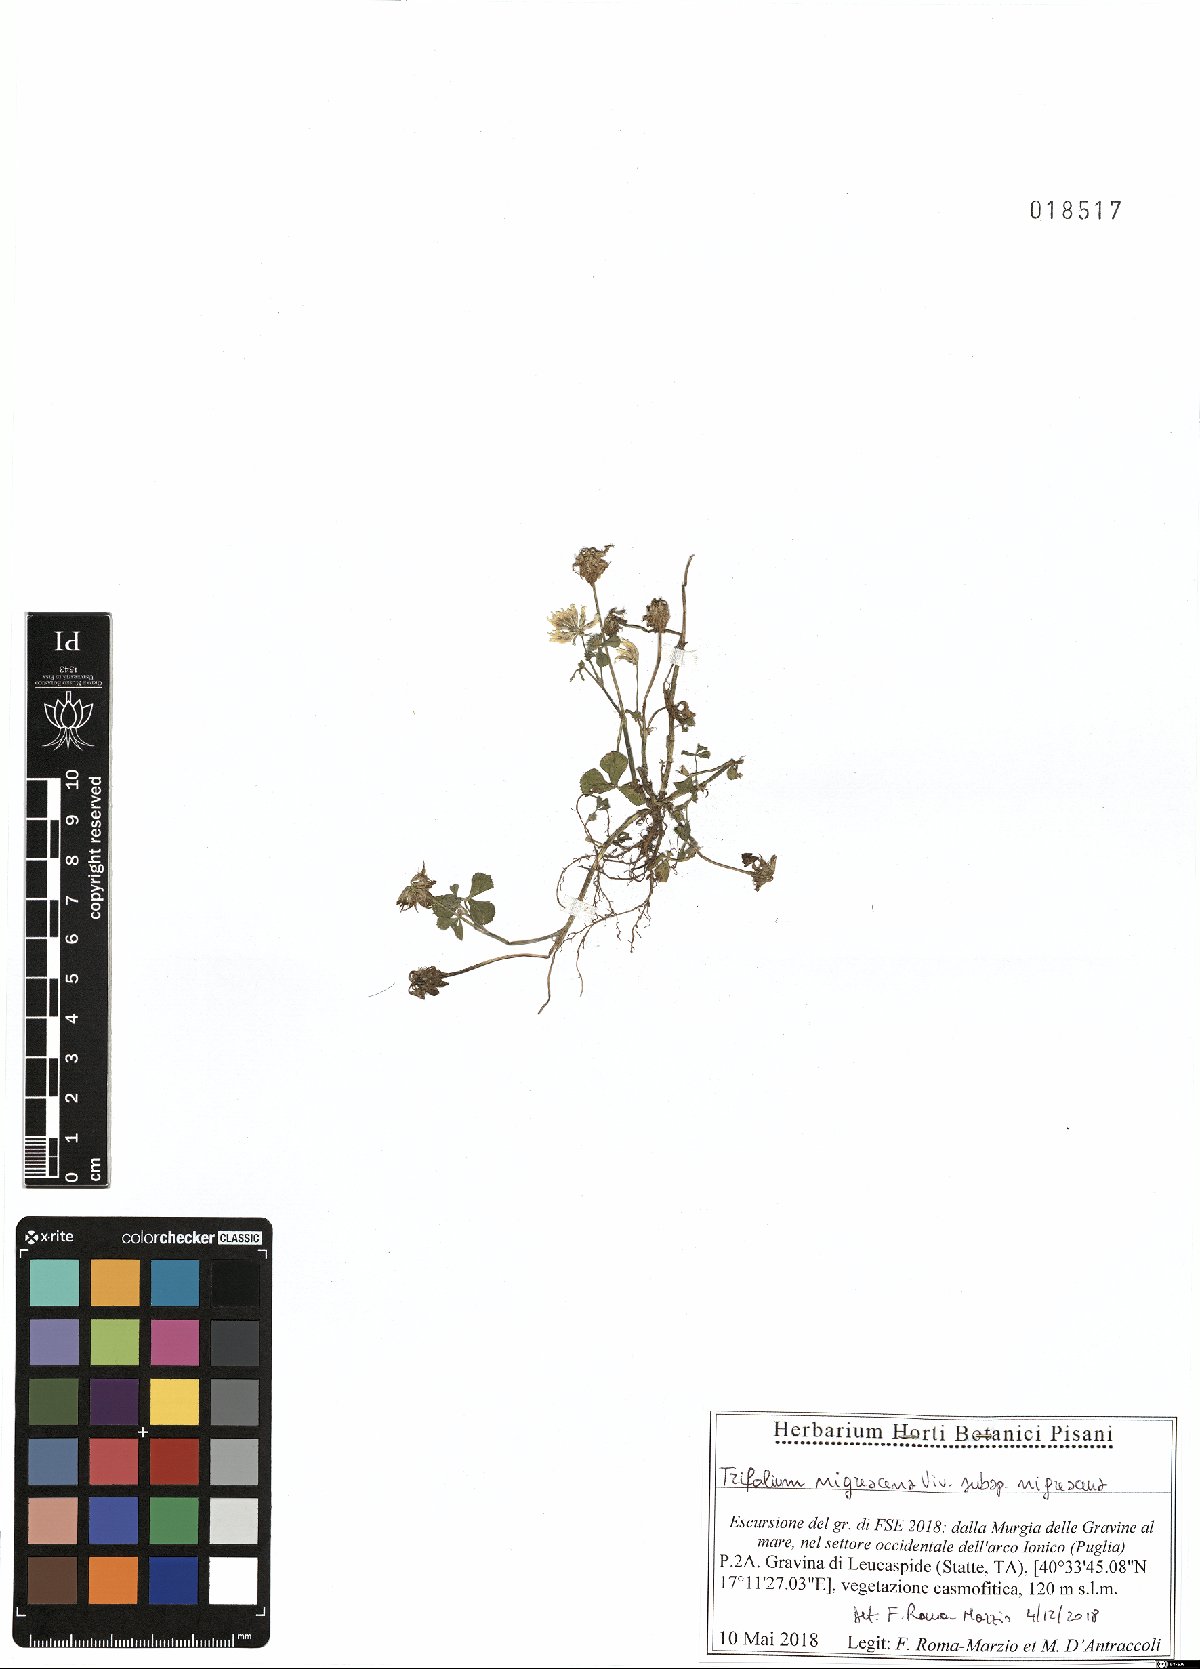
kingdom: Plantae
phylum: Tracheophyta
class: Magnoliopsida
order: Fabales
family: Fabaceae
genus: Trifolium
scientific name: Trifolium nigrescens
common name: Small white clover
